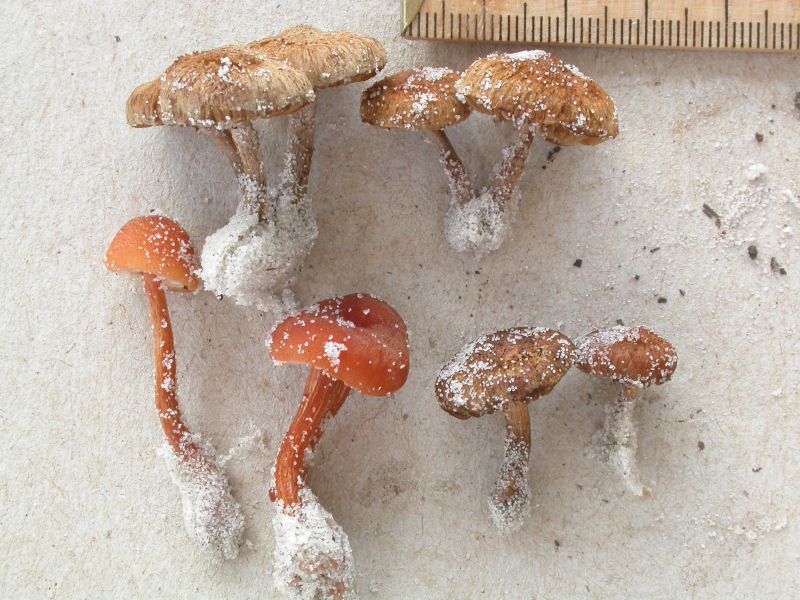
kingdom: Fungi
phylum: Basidiomycota
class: Agaricomycetes
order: Agaricales
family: Inocybaceae
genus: Inocybe
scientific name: Inocybe lacera
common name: laset trævlhat
